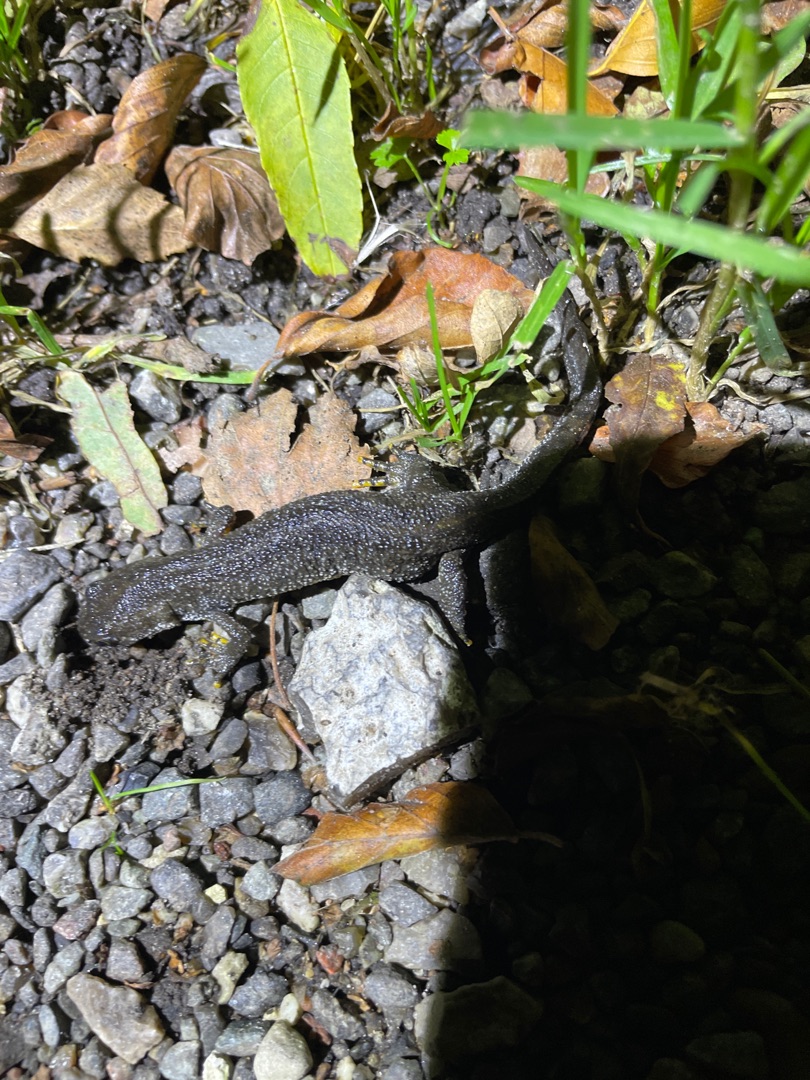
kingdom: Animalia
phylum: Chordata
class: Amphibia
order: Caudata
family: Salamandridae
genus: Triturus
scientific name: Triturus cristatus
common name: Stor vandsalamander
